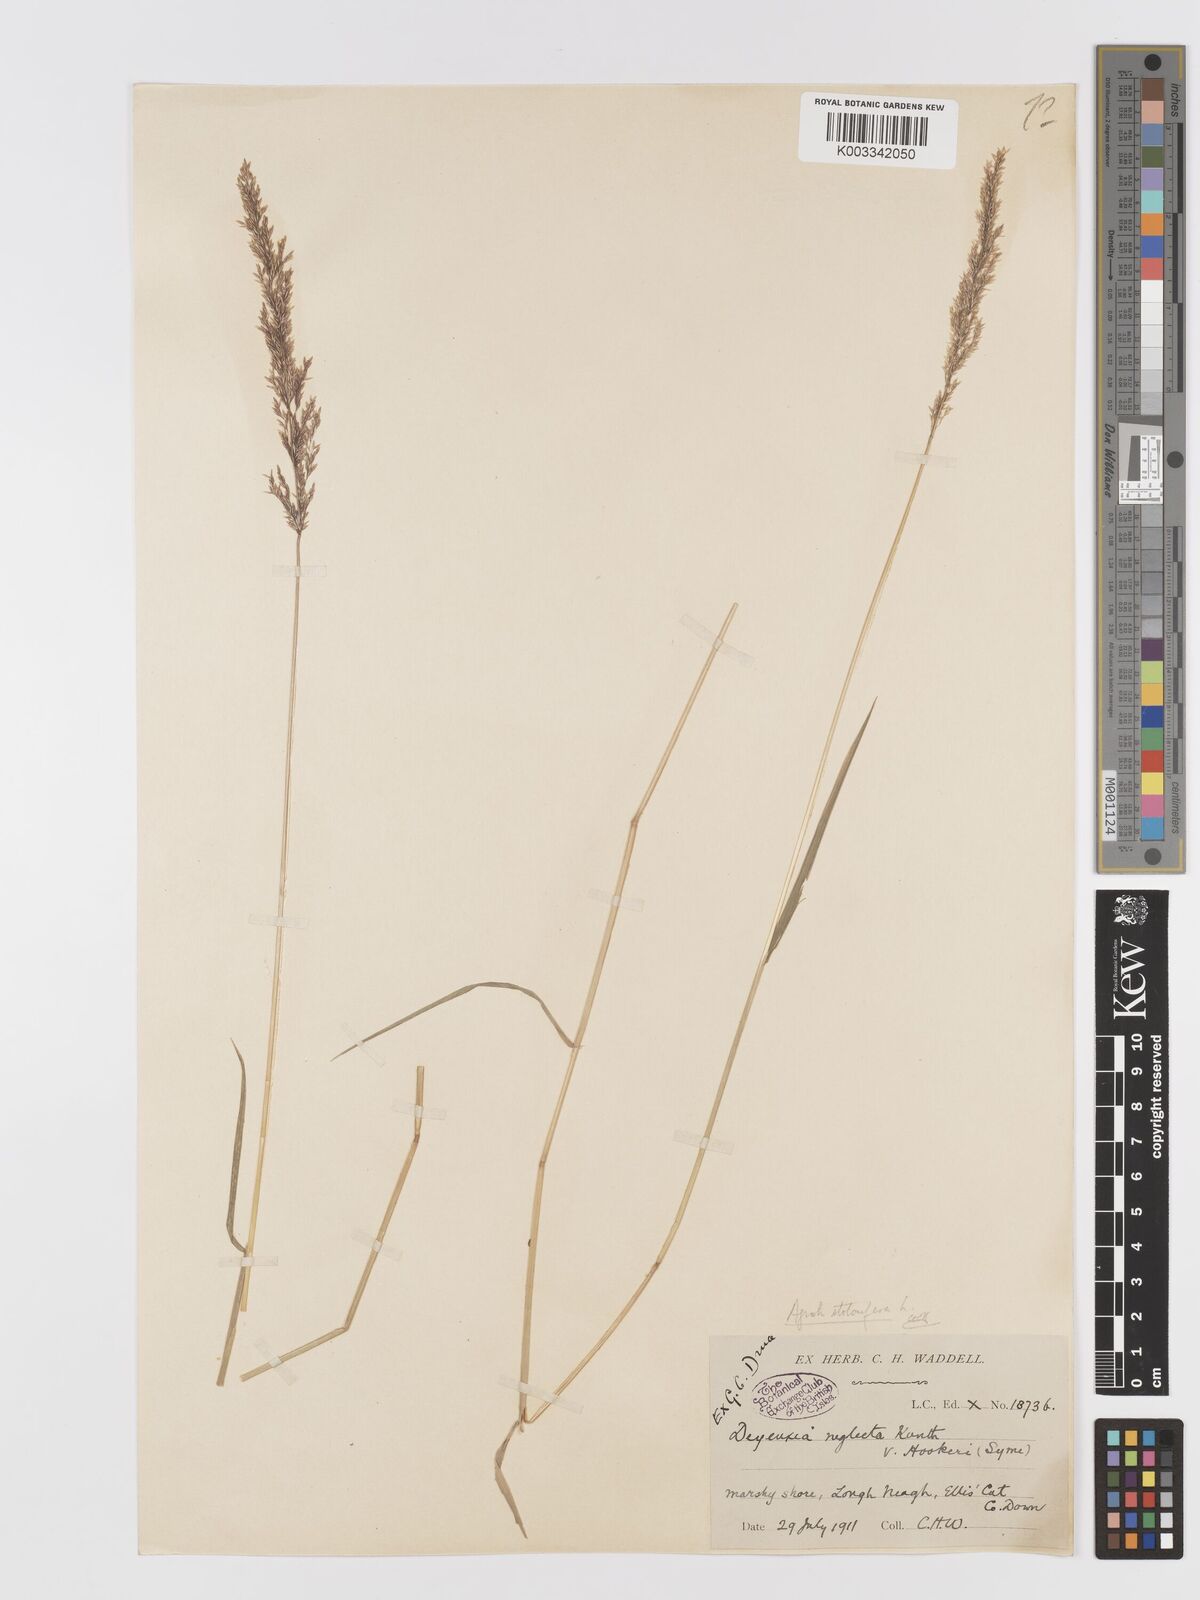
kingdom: Plantae
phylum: Tracheophyta
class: Liliopsida
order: Poales
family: Poaceae
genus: Agrostis
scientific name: Agrostis stolonifera
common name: Creeping bentgrass
